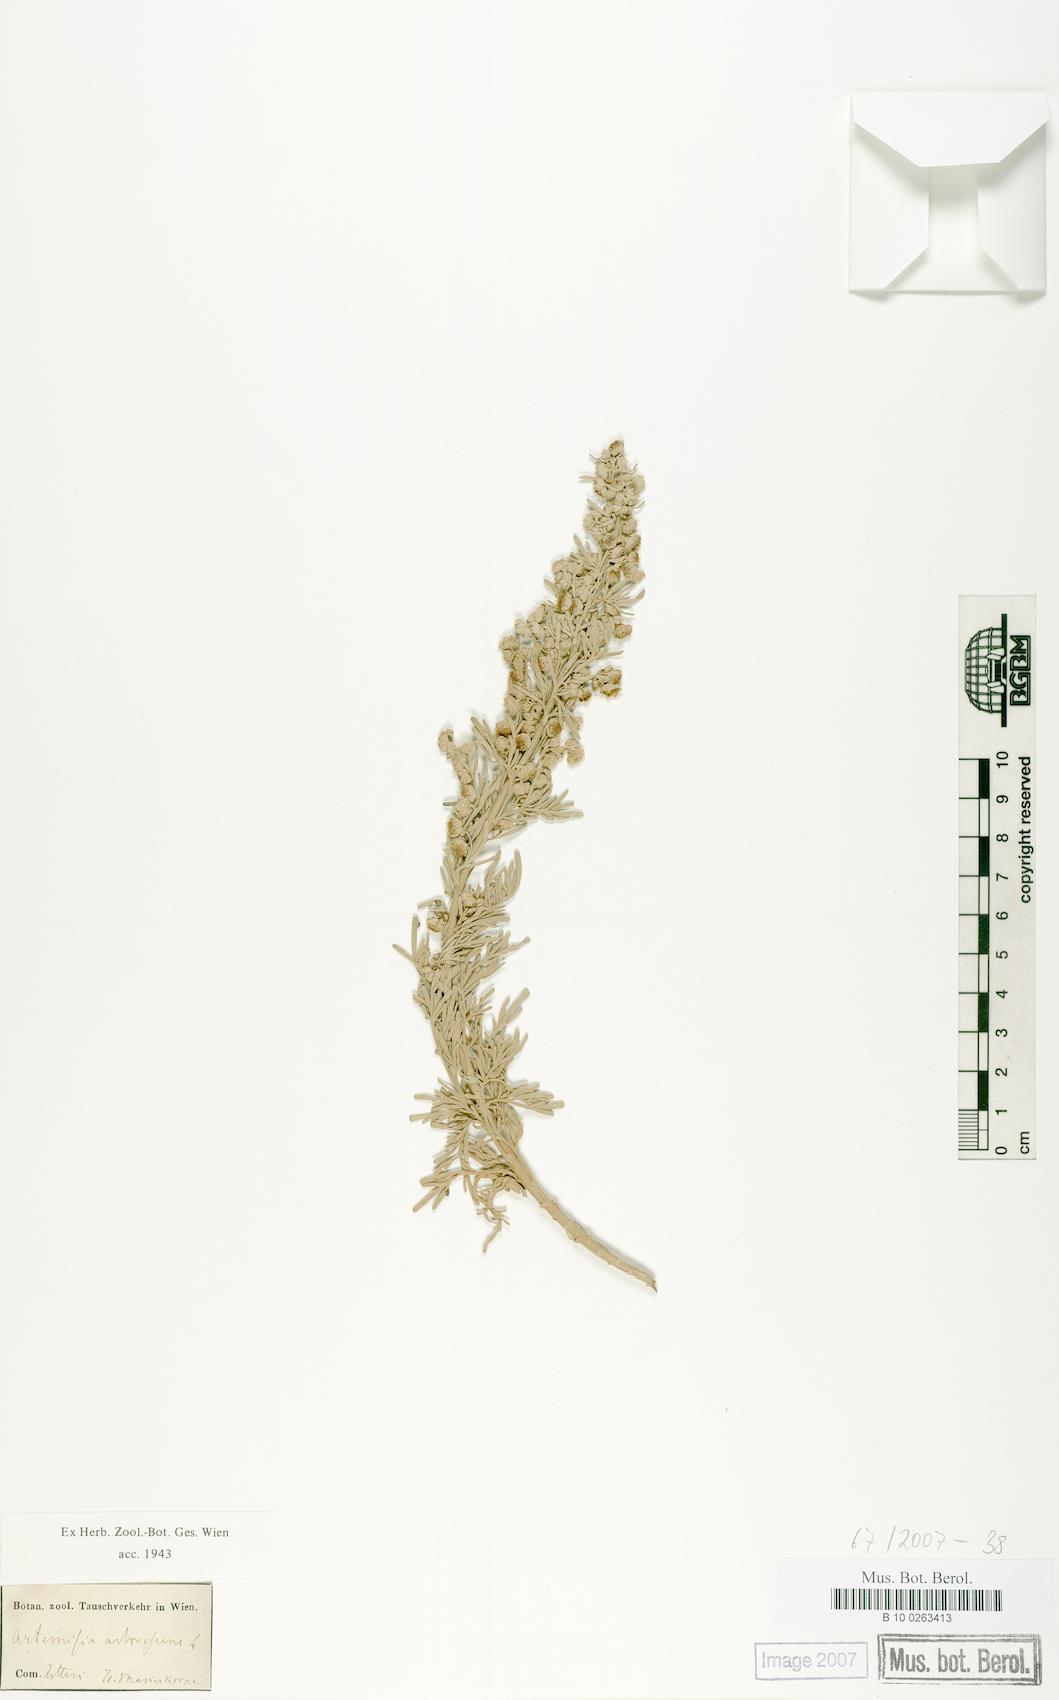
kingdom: Plantae
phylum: Tracheophyta
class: Magnoliopsida
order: Asterales
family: Asteraceae
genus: Artemisia
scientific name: Artemisia arborescens
